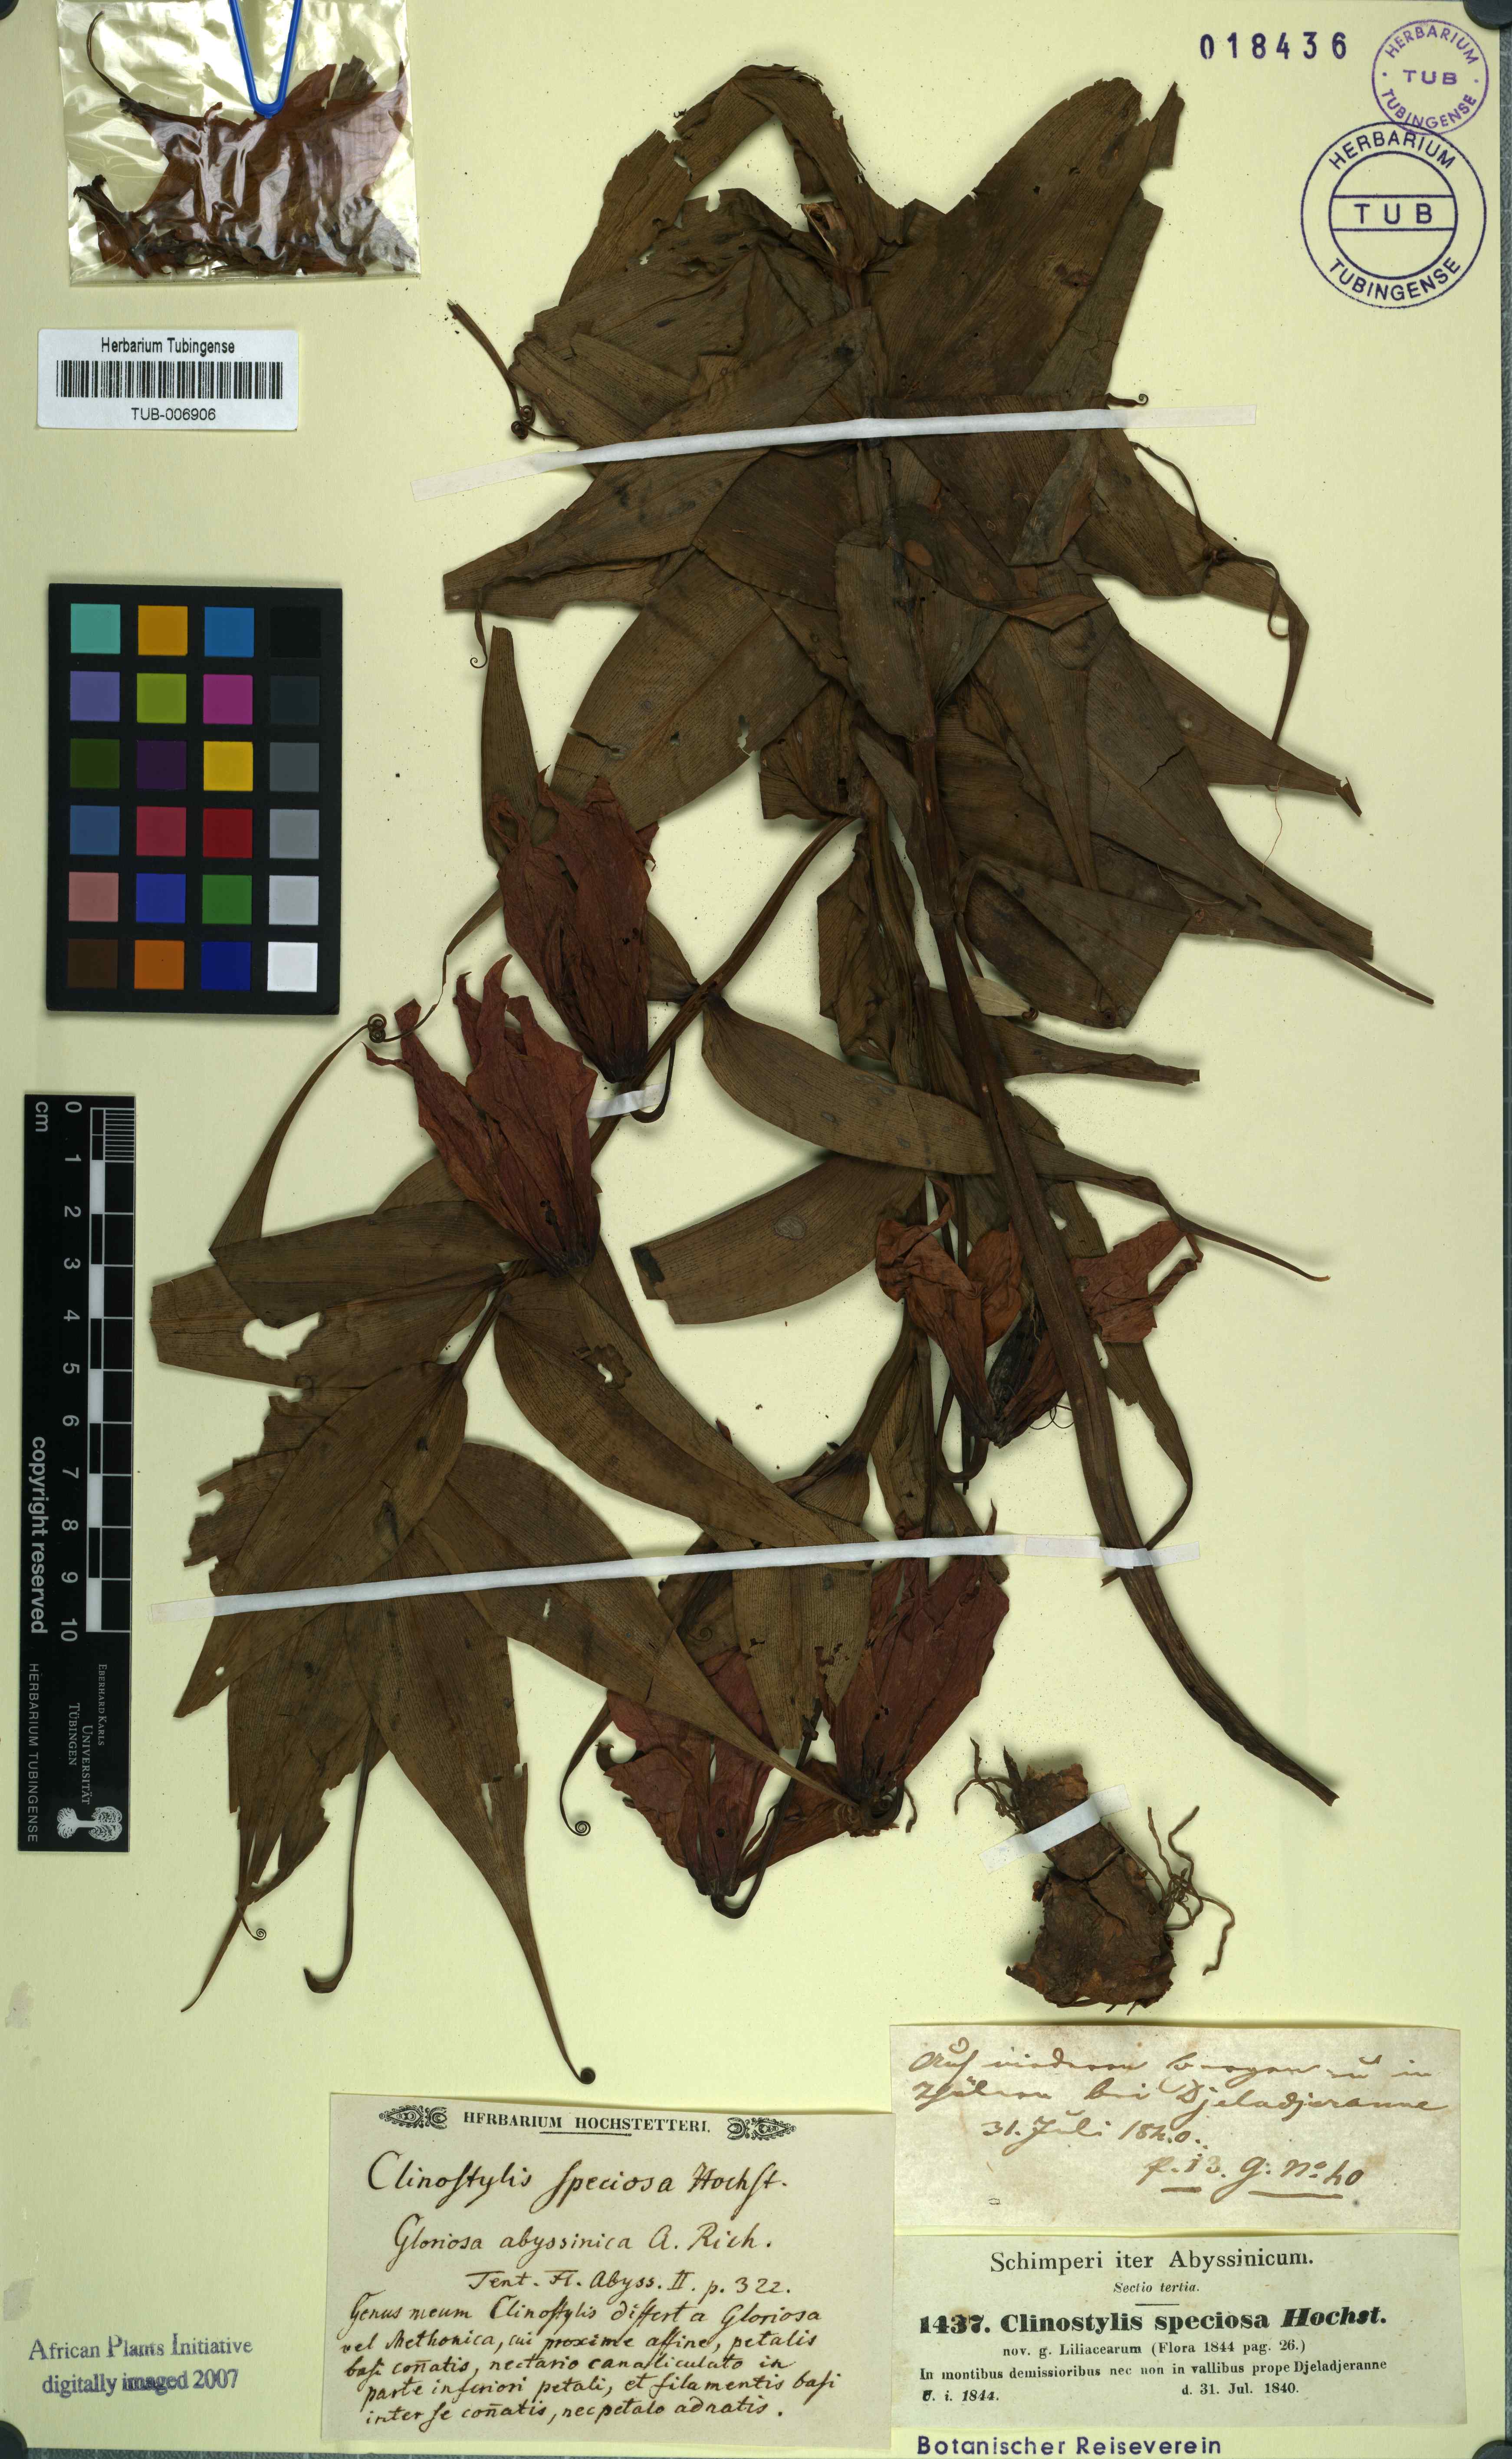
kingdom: Plantae
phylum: Tracheophyta
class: Liliopsida
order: Liliales
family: Colchicaceae
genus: Gloriosa
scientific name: Gloriosa simplex
